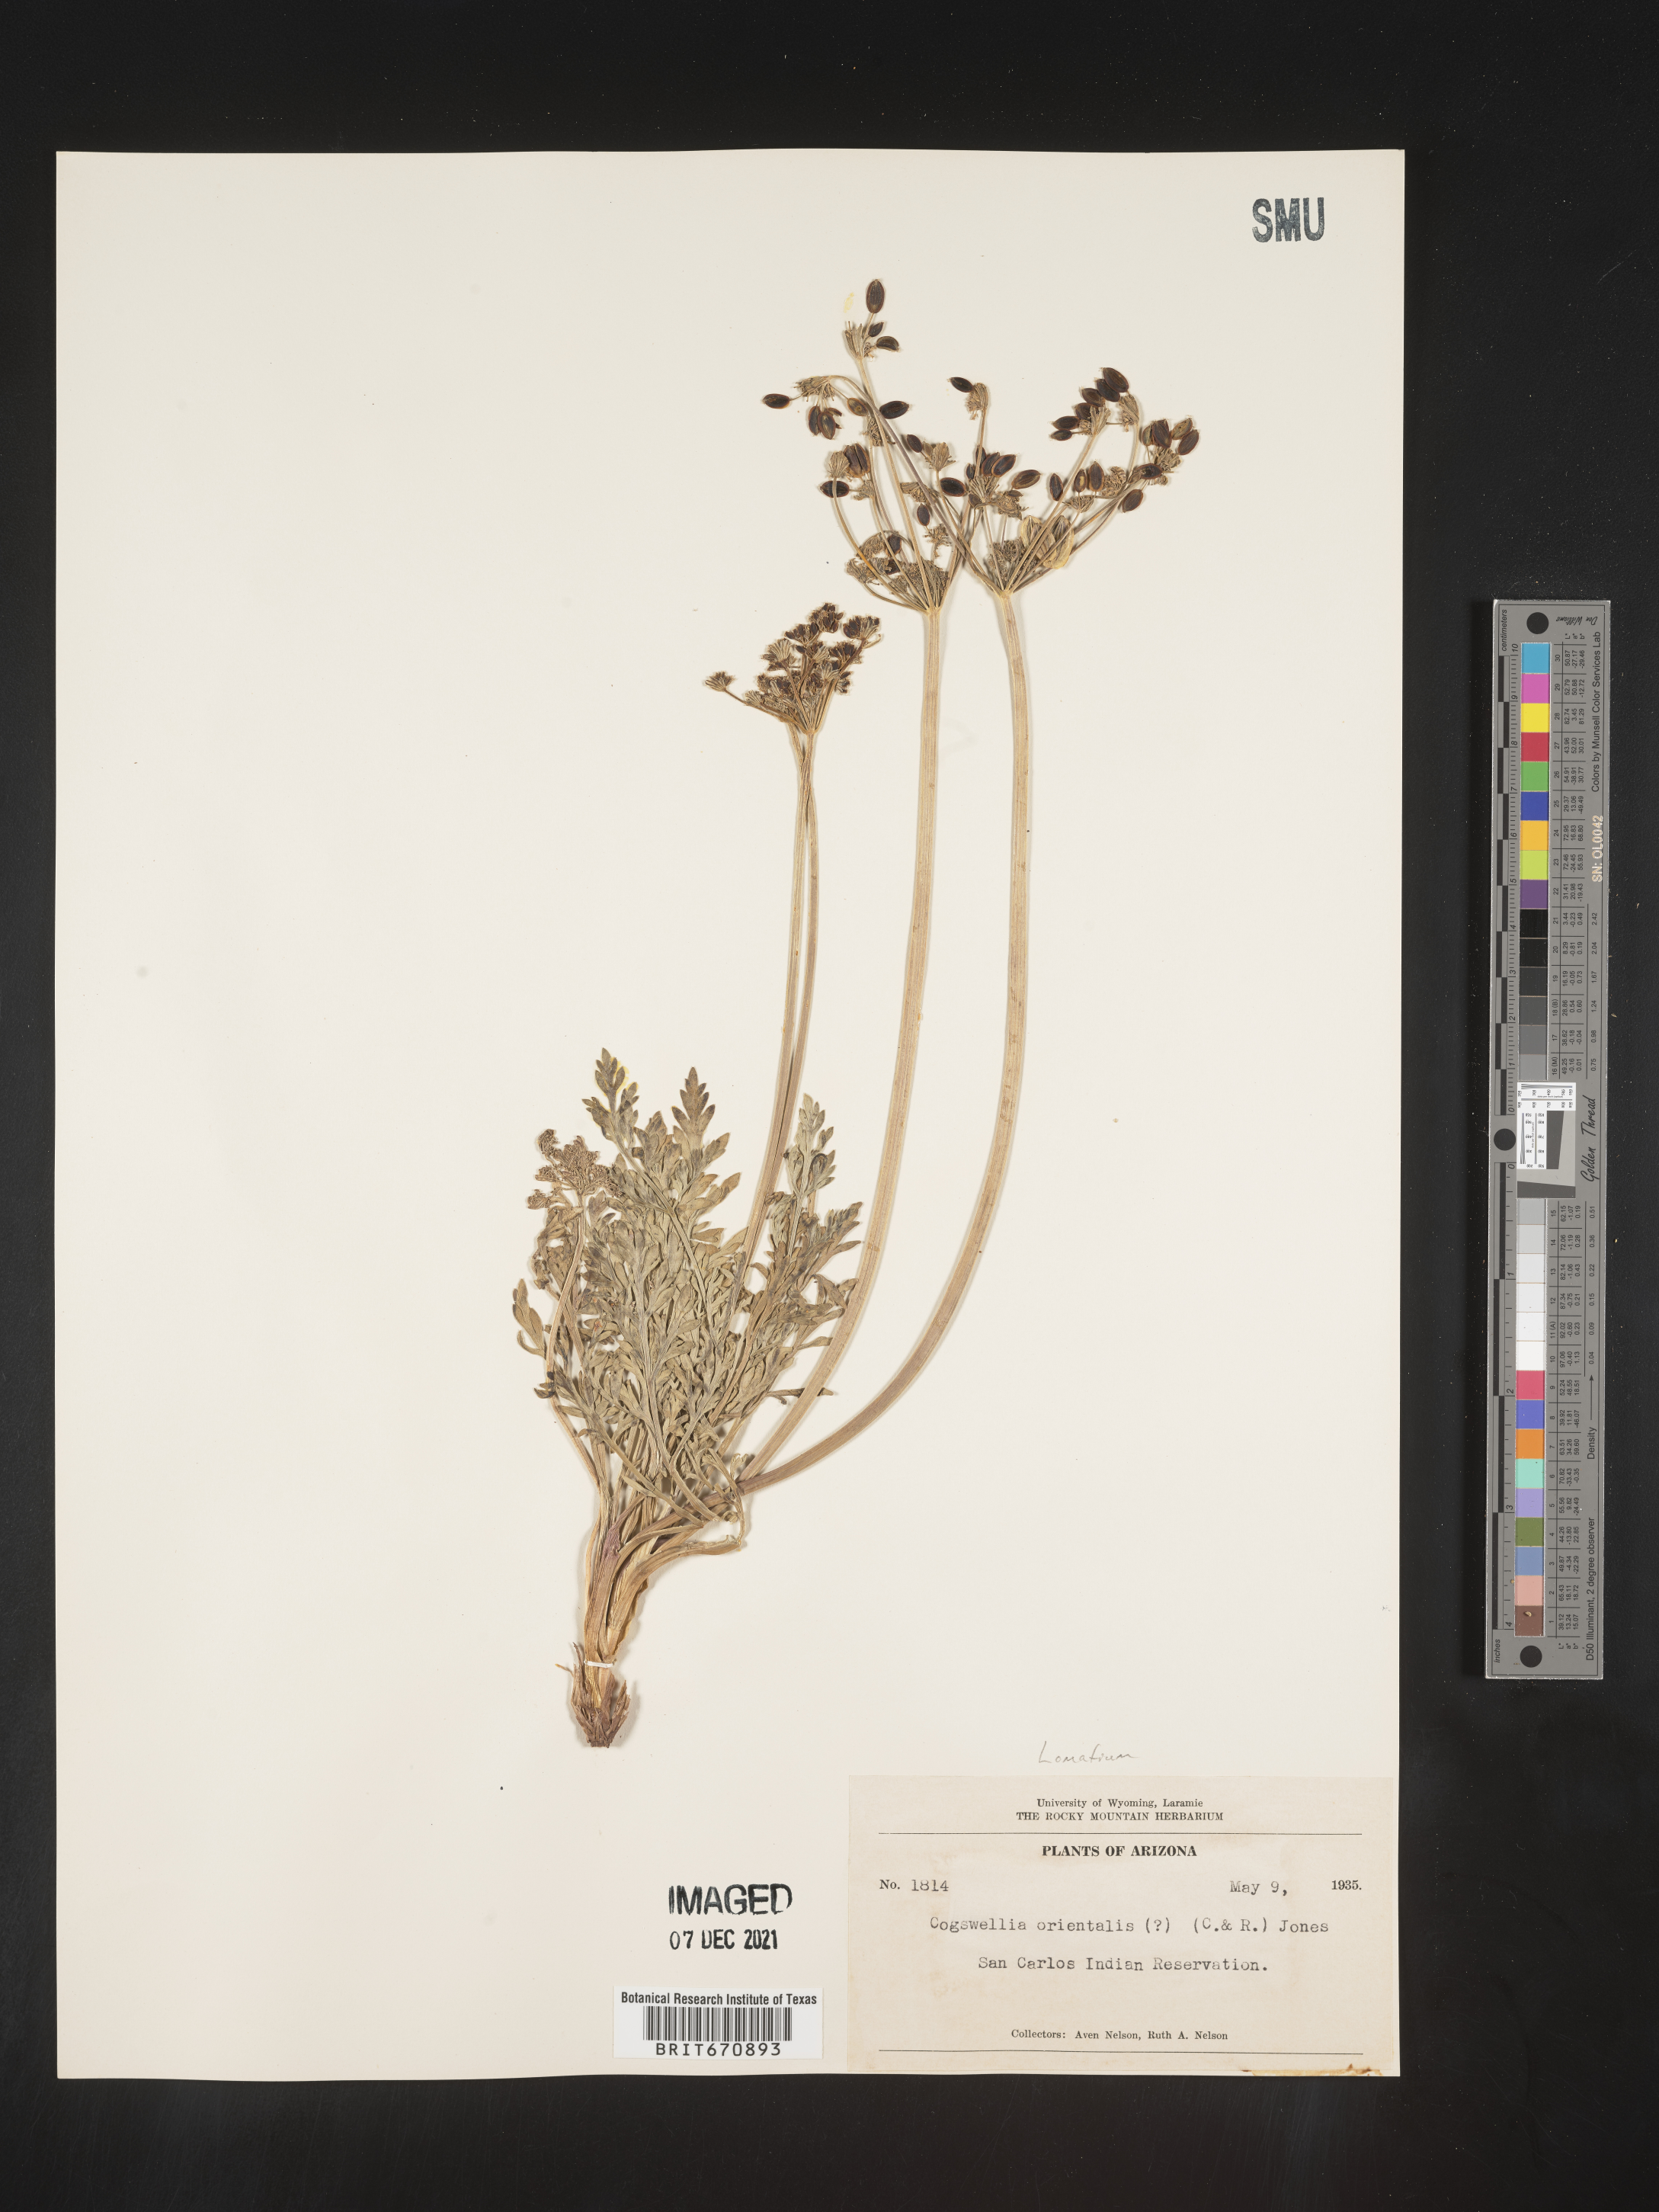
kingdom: Plantae
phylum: Tracheophyta
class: Magnoliopsida
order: Apiales
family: Apiaceae
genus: Lomatium
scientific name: Lomatium
